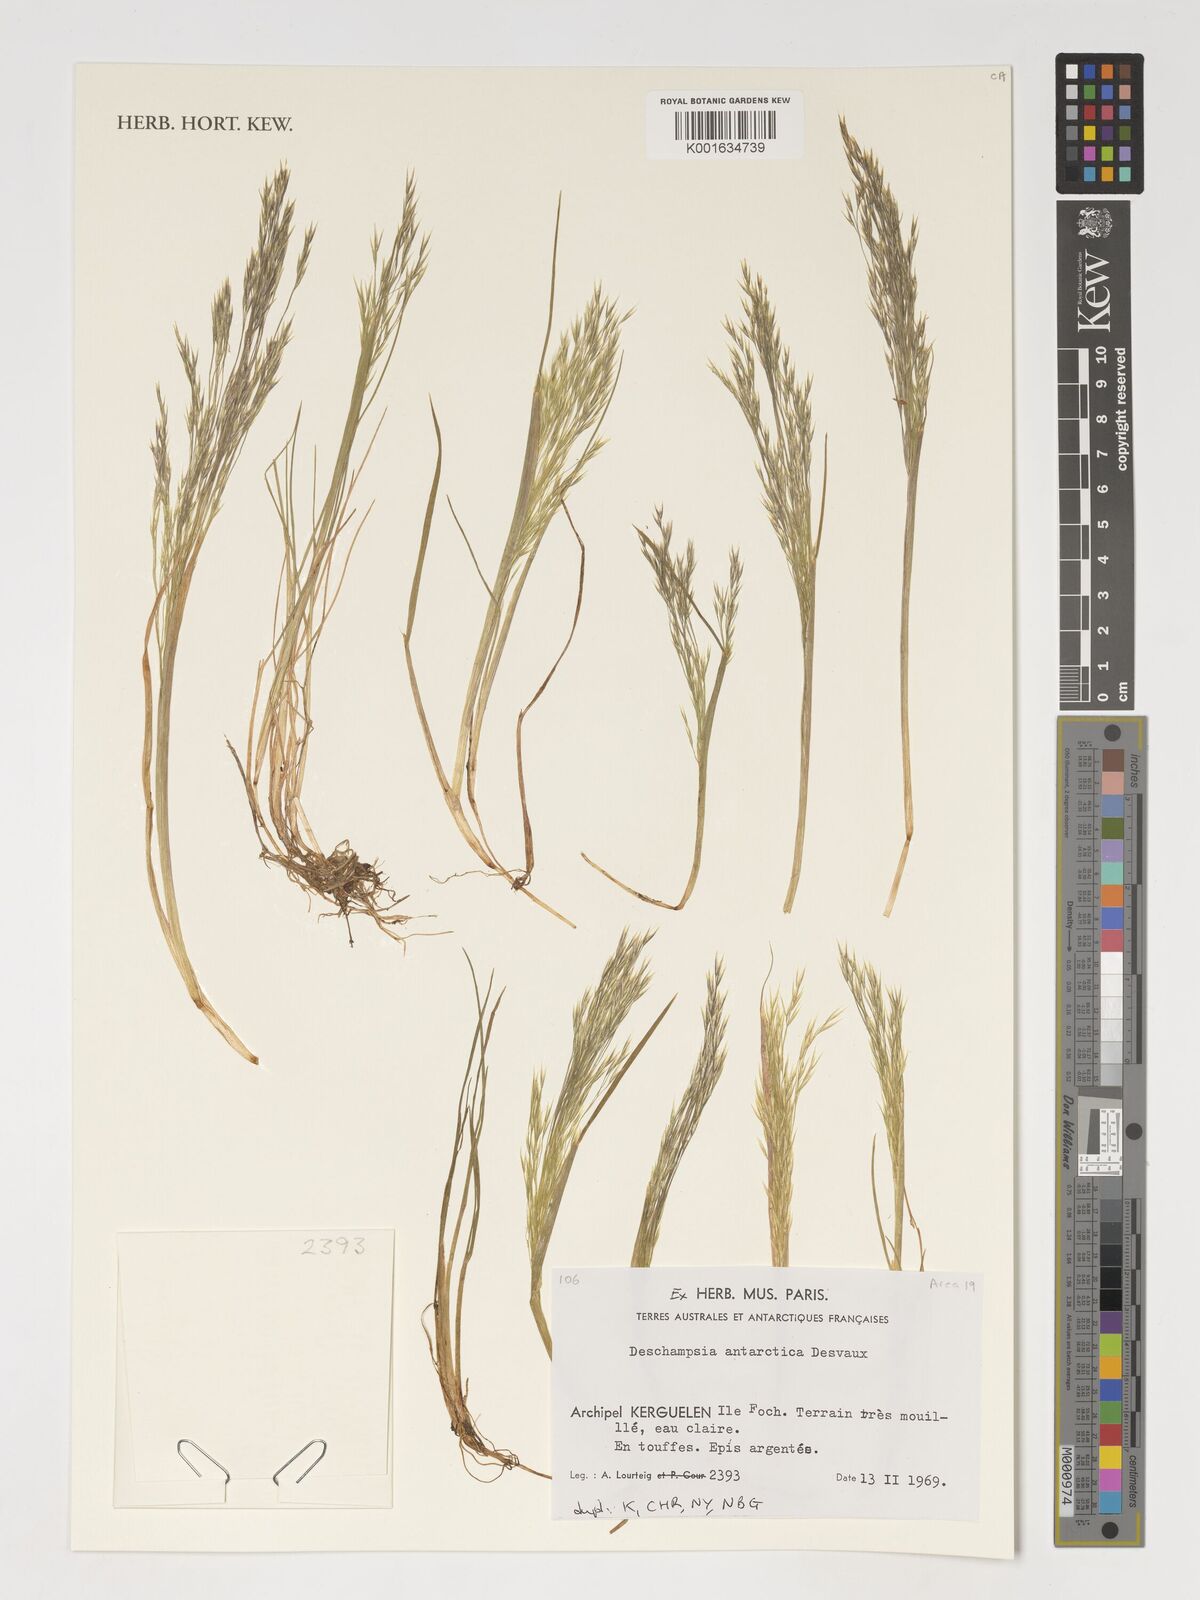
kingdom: Plantae
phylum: Tracheophyta
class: Liliopsida
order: Poales
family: Poaceae
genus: Deschampsia
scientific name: Deschampsia antarctica
